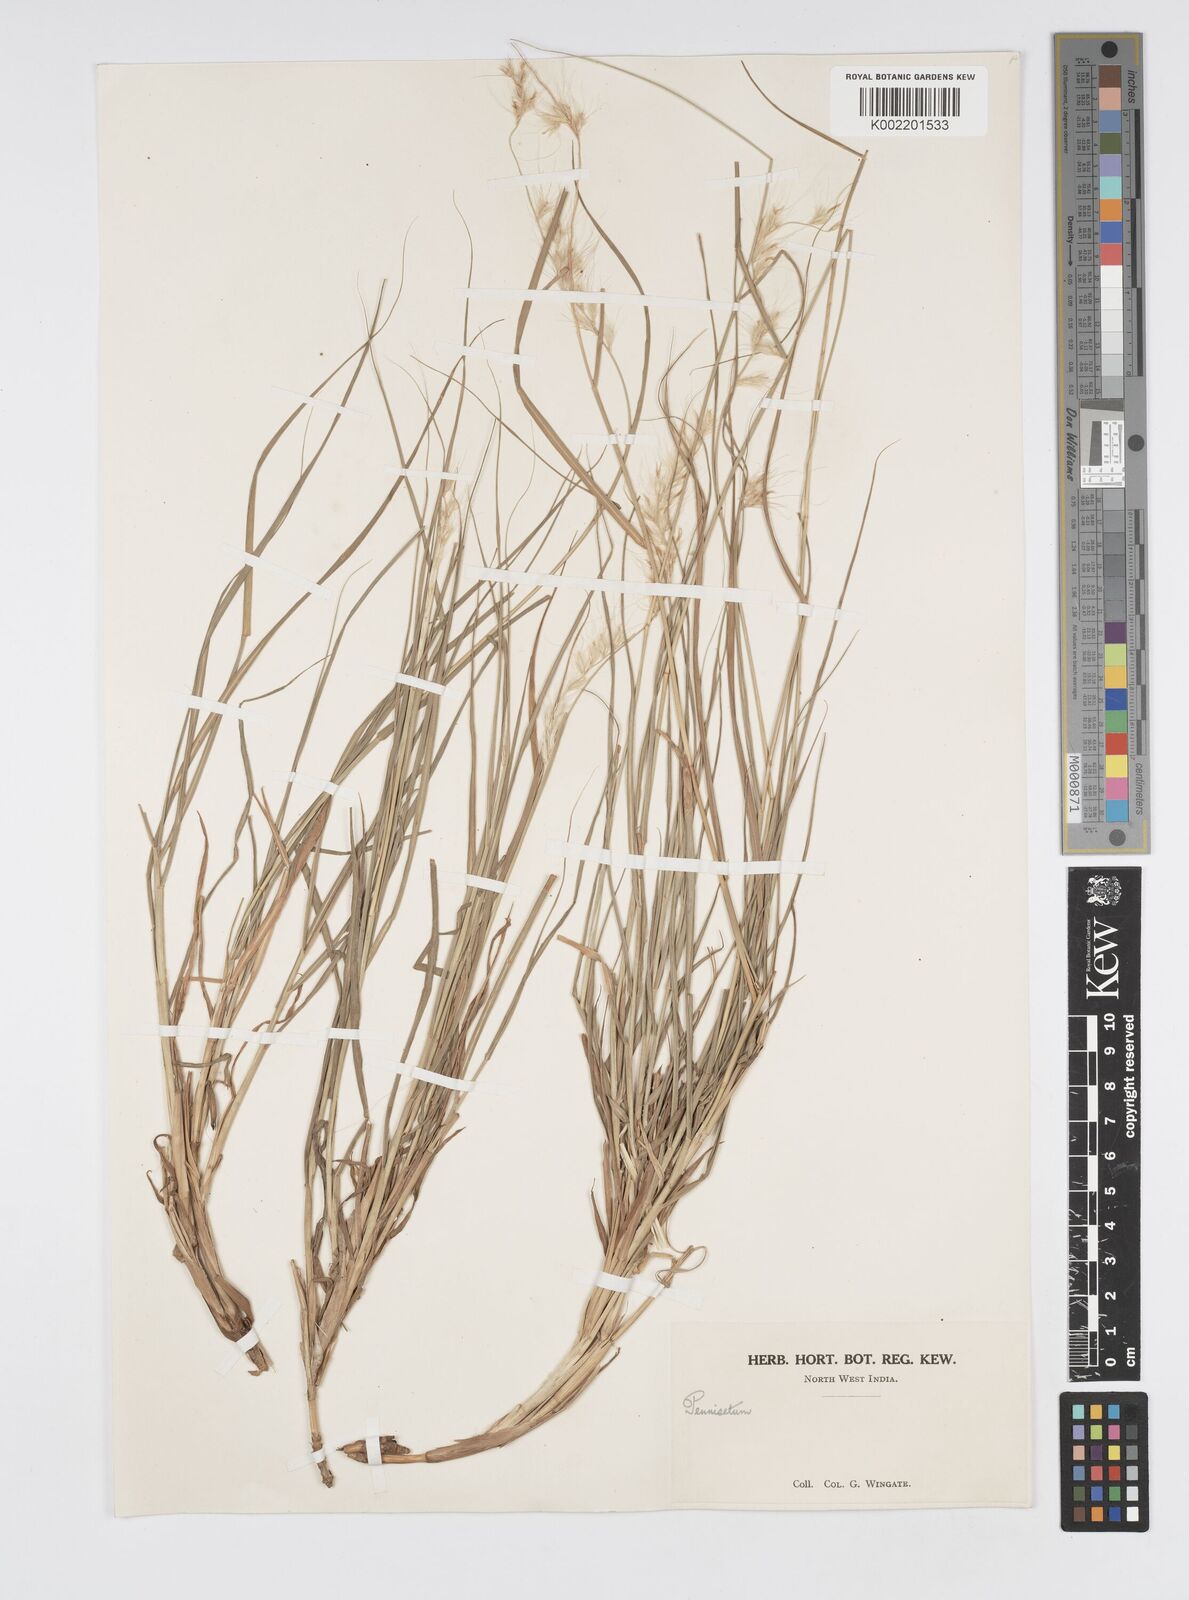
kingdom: Plantae
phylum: Tracheophyta
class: Liliopsida
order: Poales
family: Poaceae
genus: Cenchrus
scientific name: Cenchrus orientalis
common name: Oriental fountain grass
